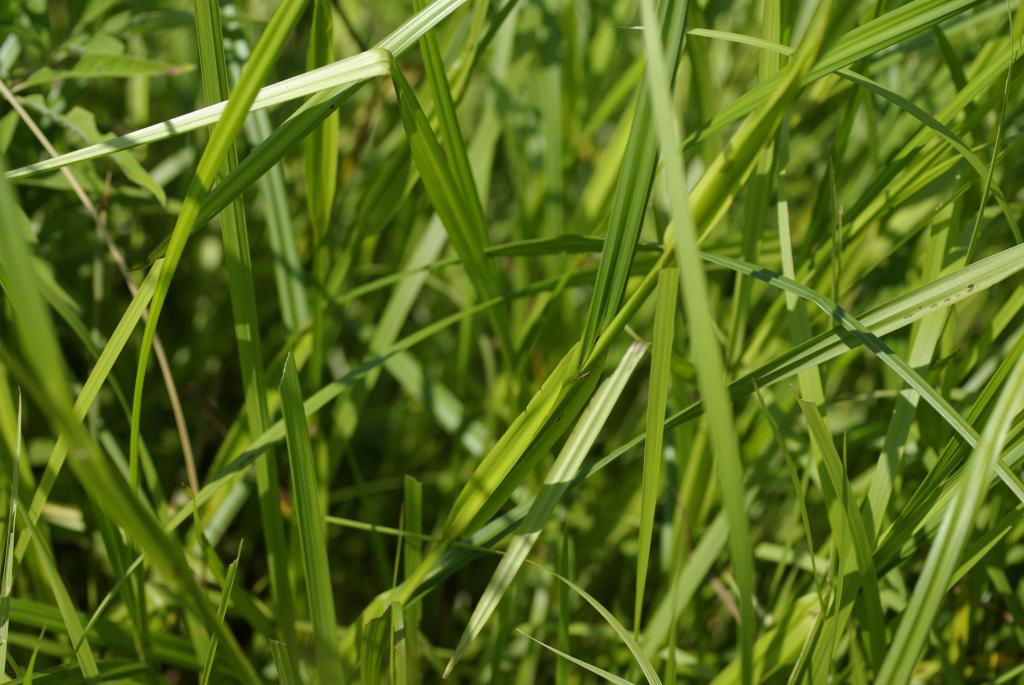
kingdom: Plantae
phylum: Tracheophyta
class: Liliopsida
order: Poales
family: Cyperaceae
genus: Scleria
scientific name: Scleria radula
